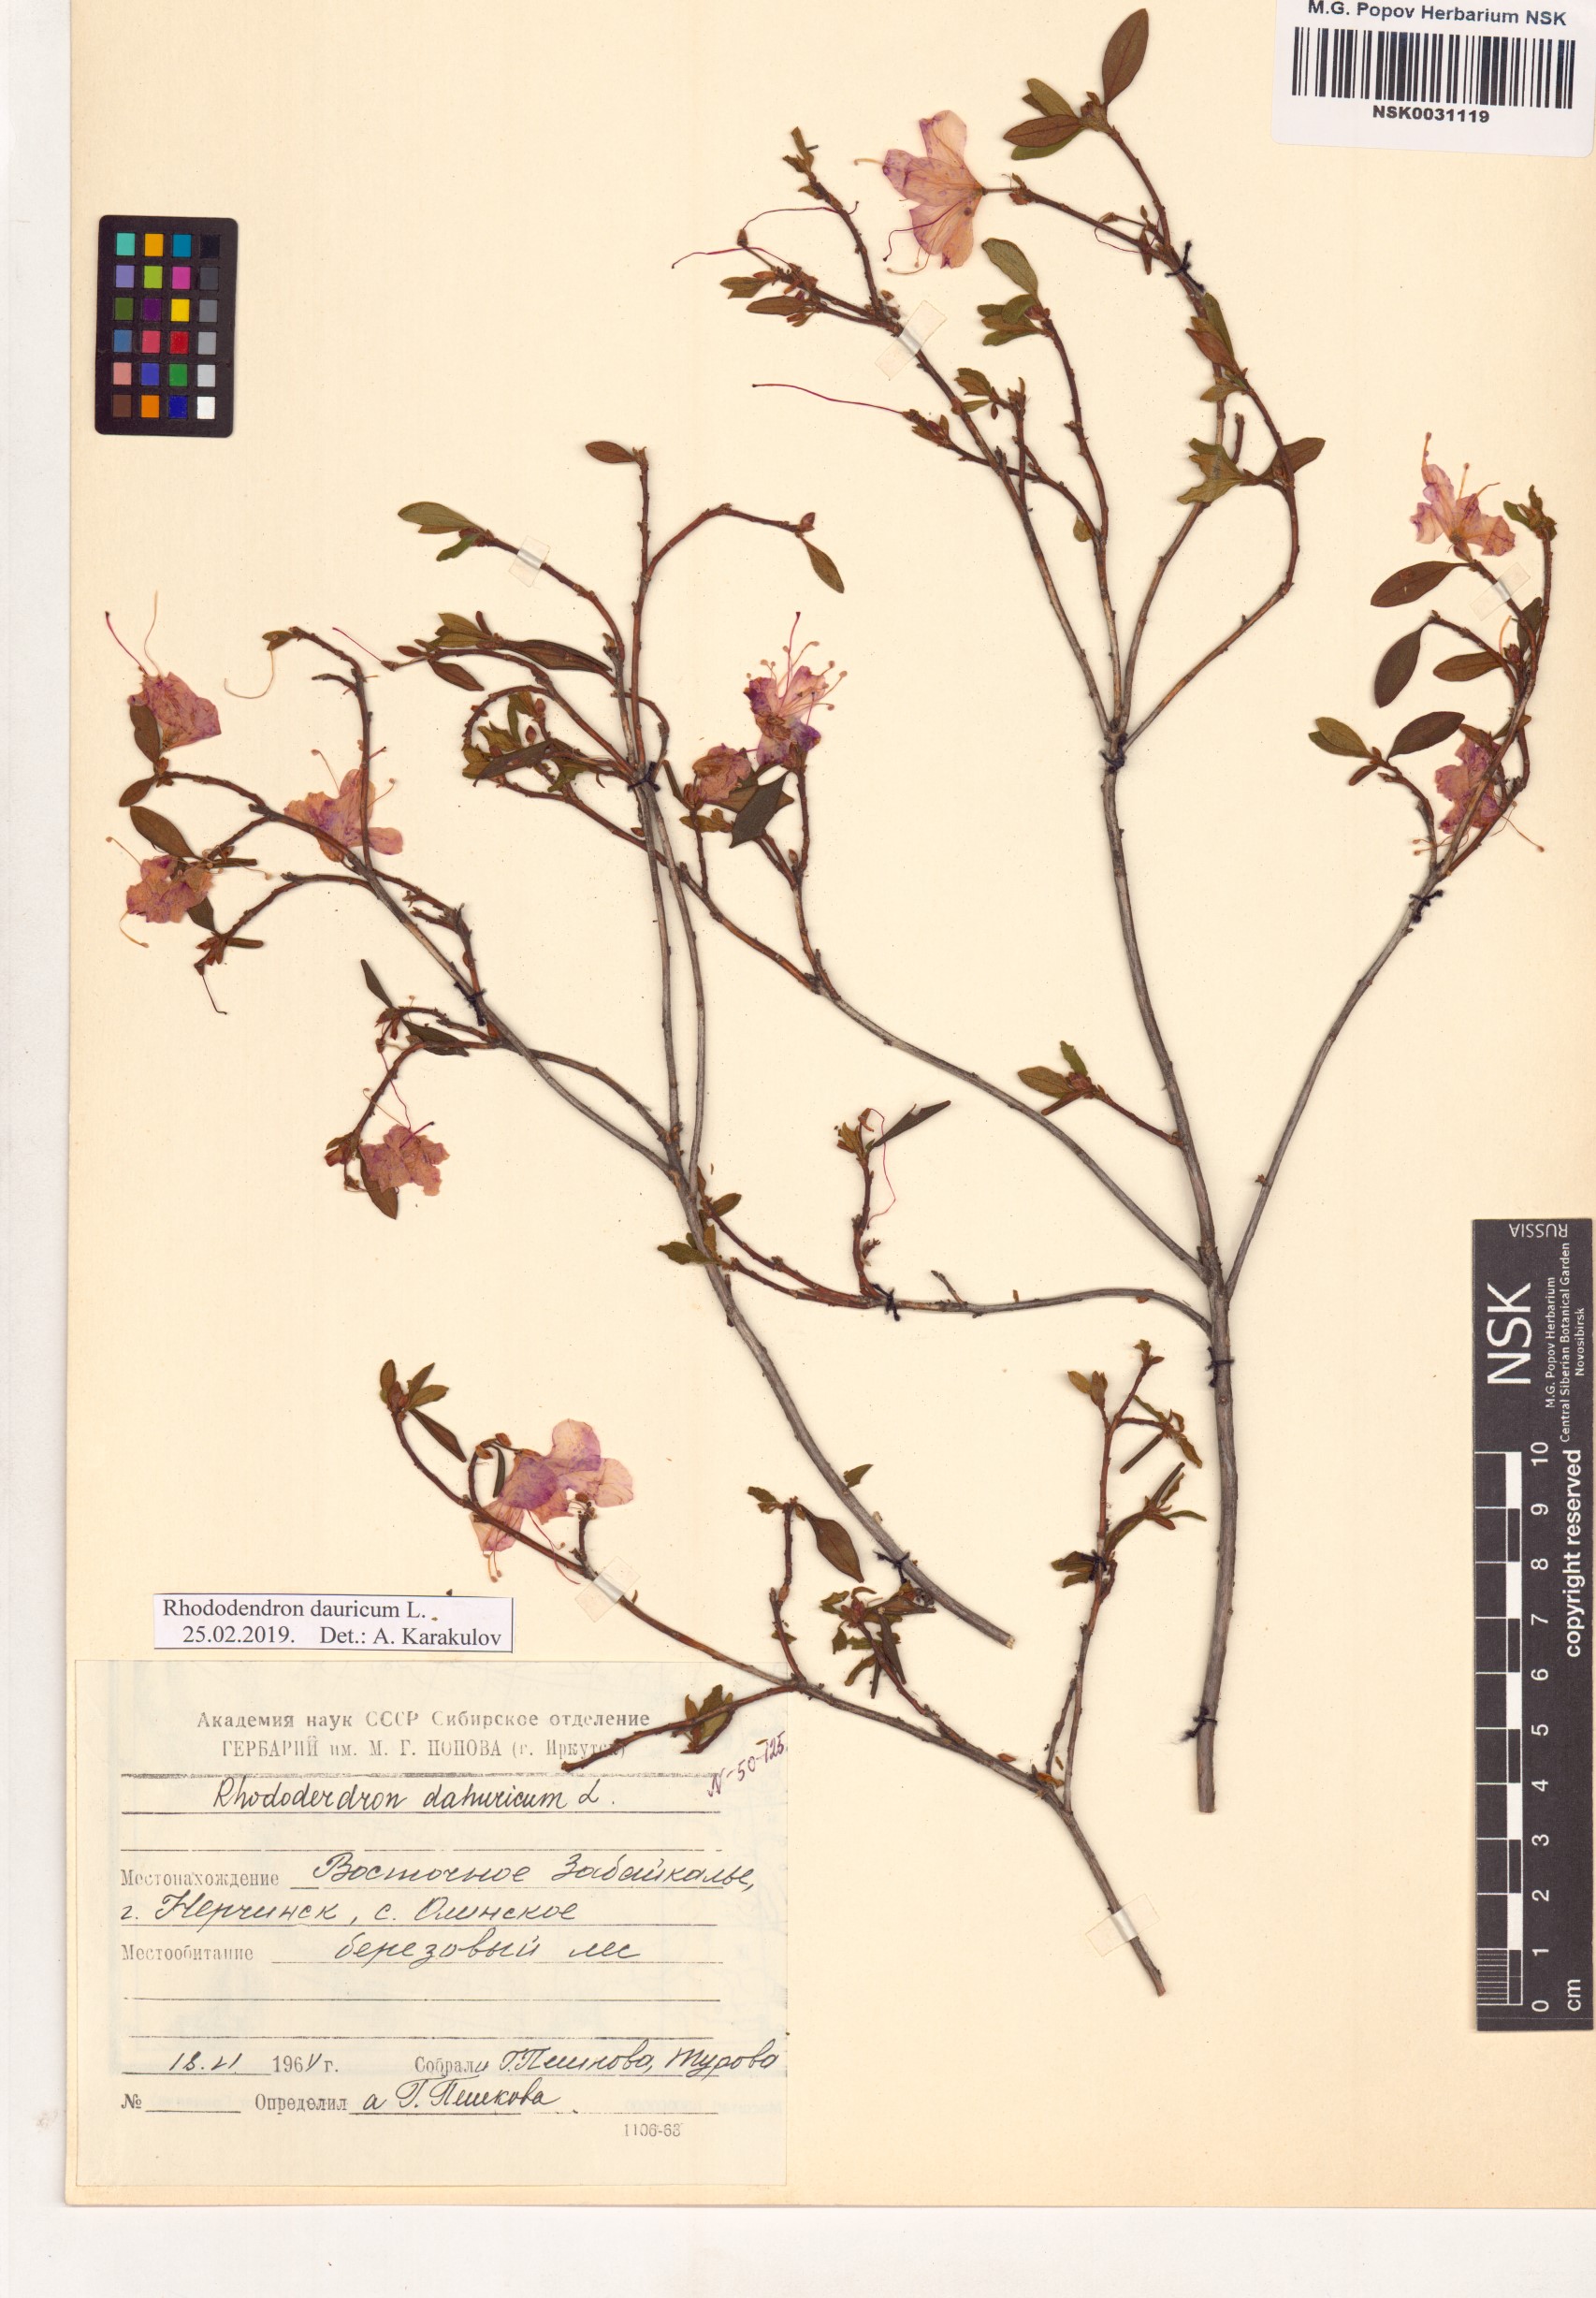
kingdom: Plantae
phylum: Tracheophyta
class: Magnoliopsida
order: Ericales
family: Ericaceae
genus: Rhododendron
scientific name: Rhododendron dauricum
